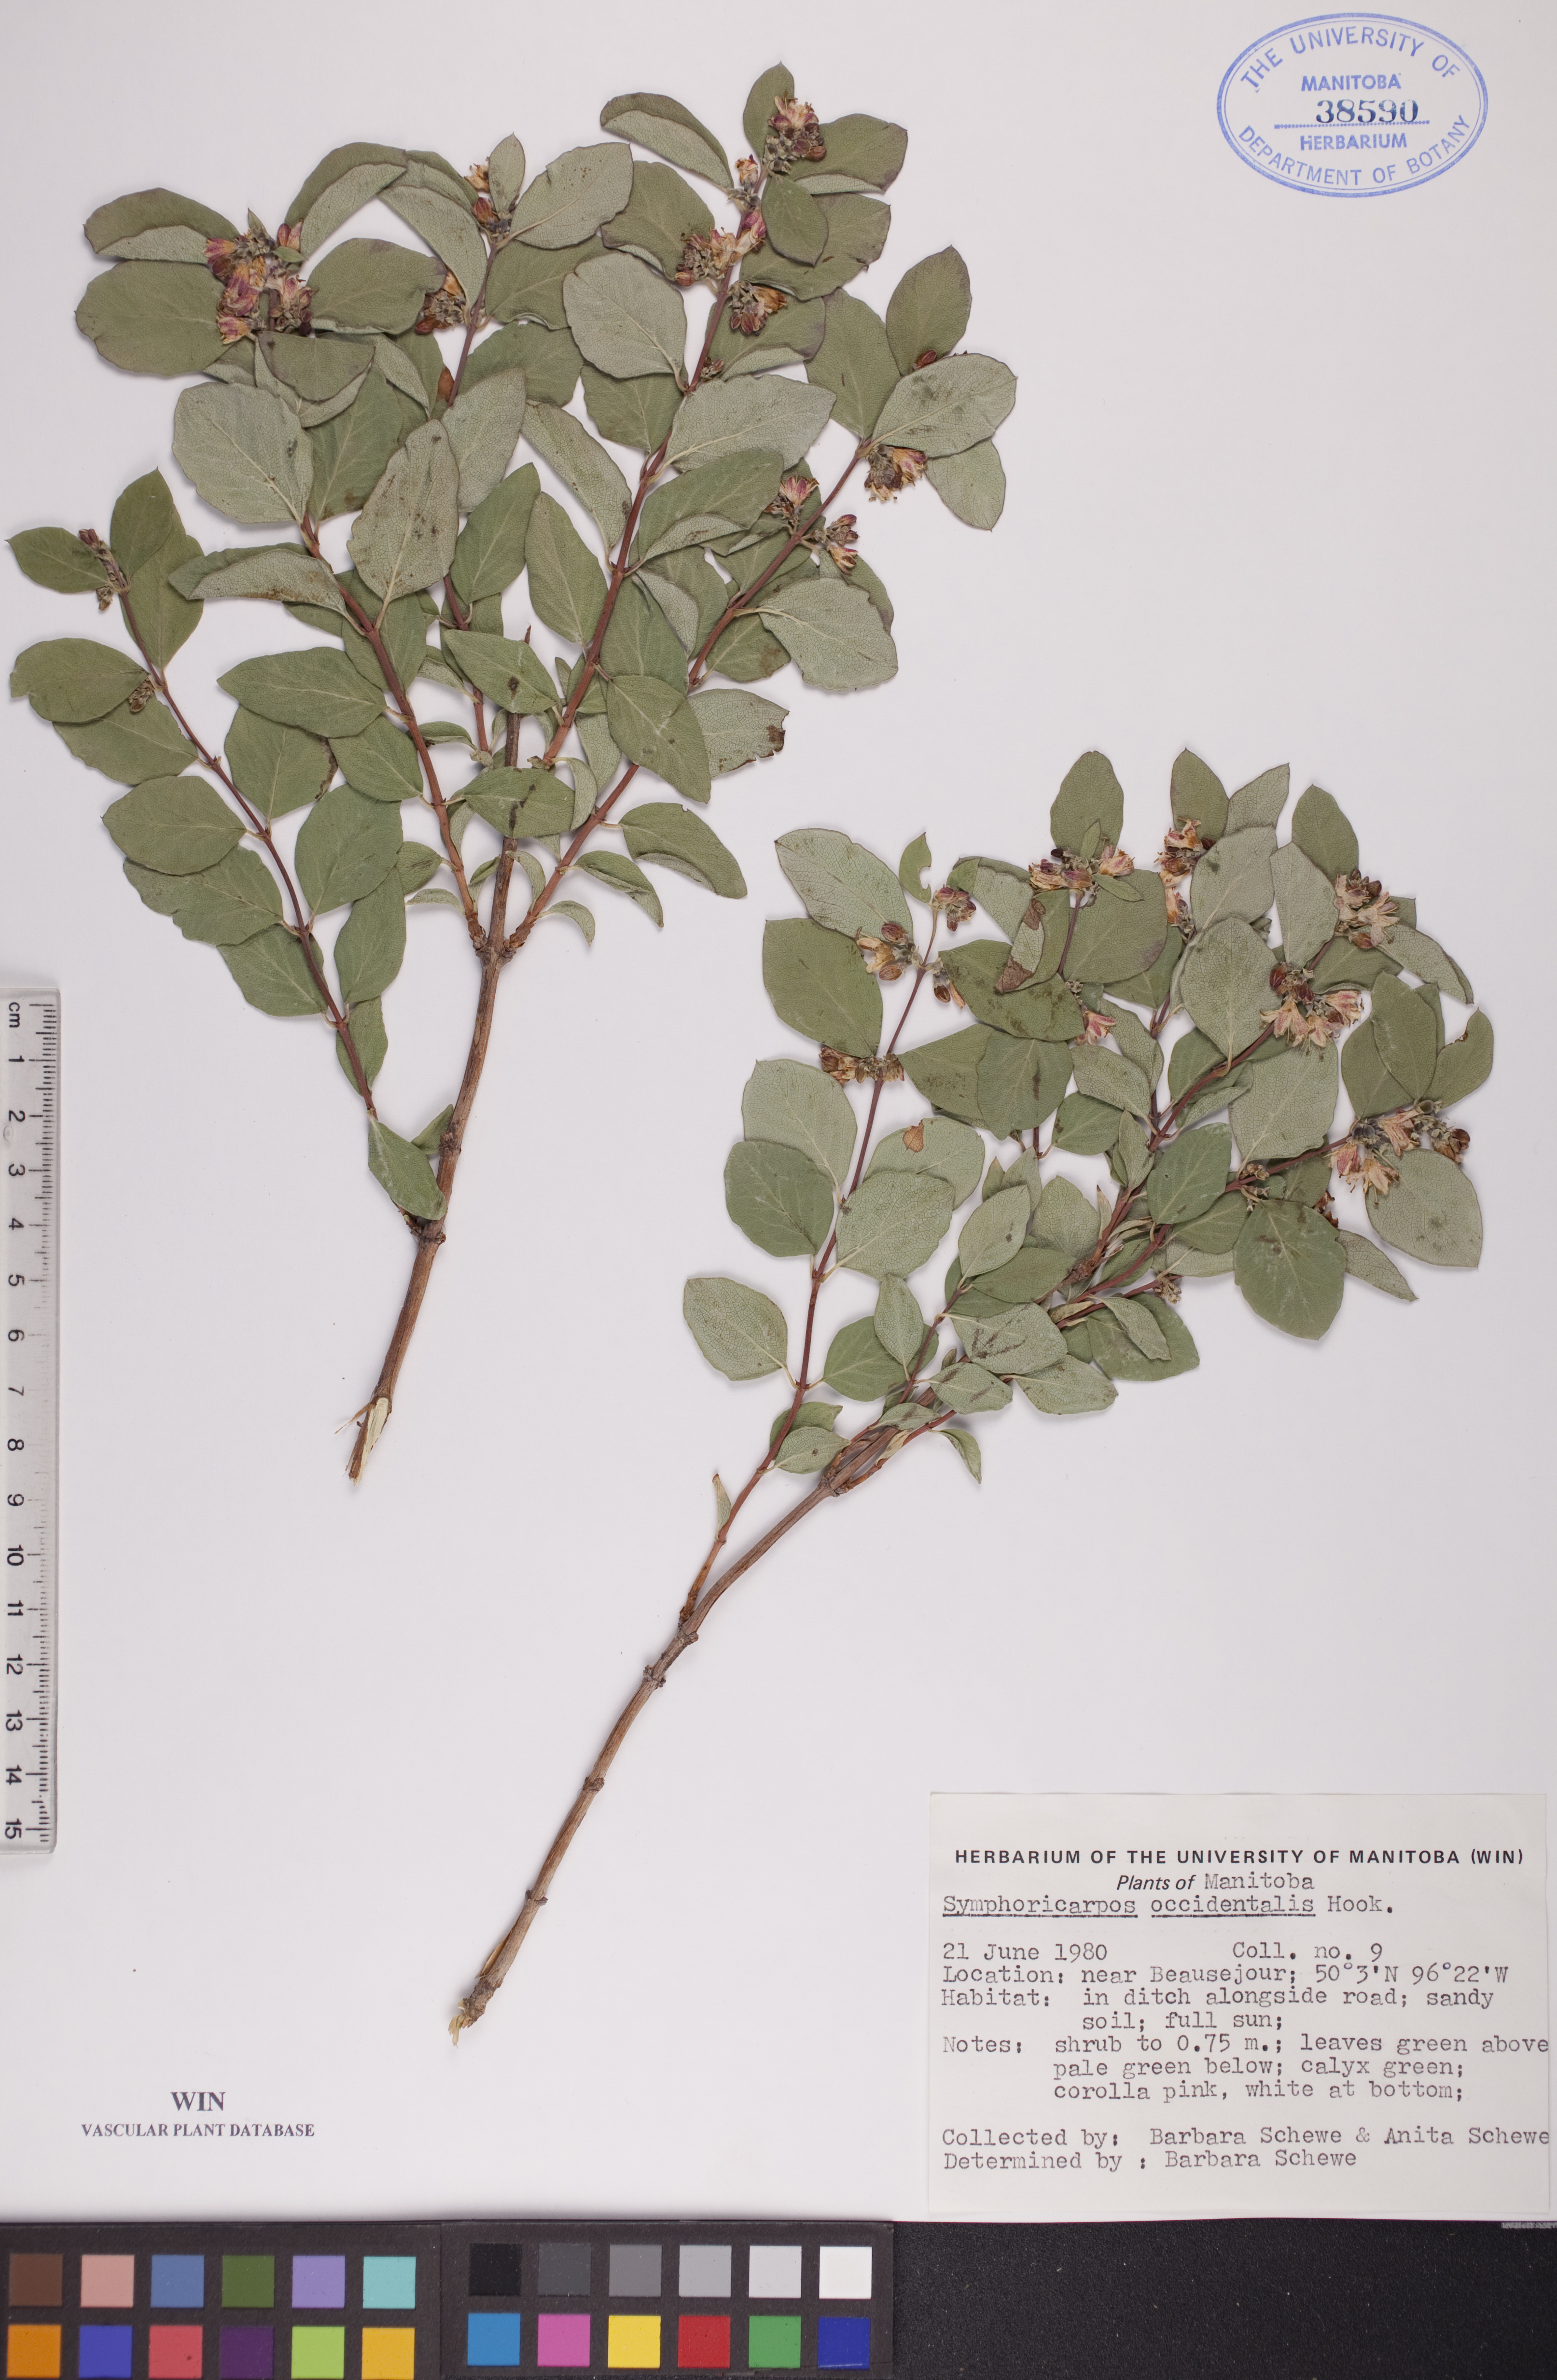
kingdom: Plantae
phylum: Tracheophyta
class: Magnoliopsida
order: Dipsacales
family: Caprifoliaceae
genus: Symphoricarpos
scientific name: Symphoricarpos occidentalis
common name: Wolfberry
